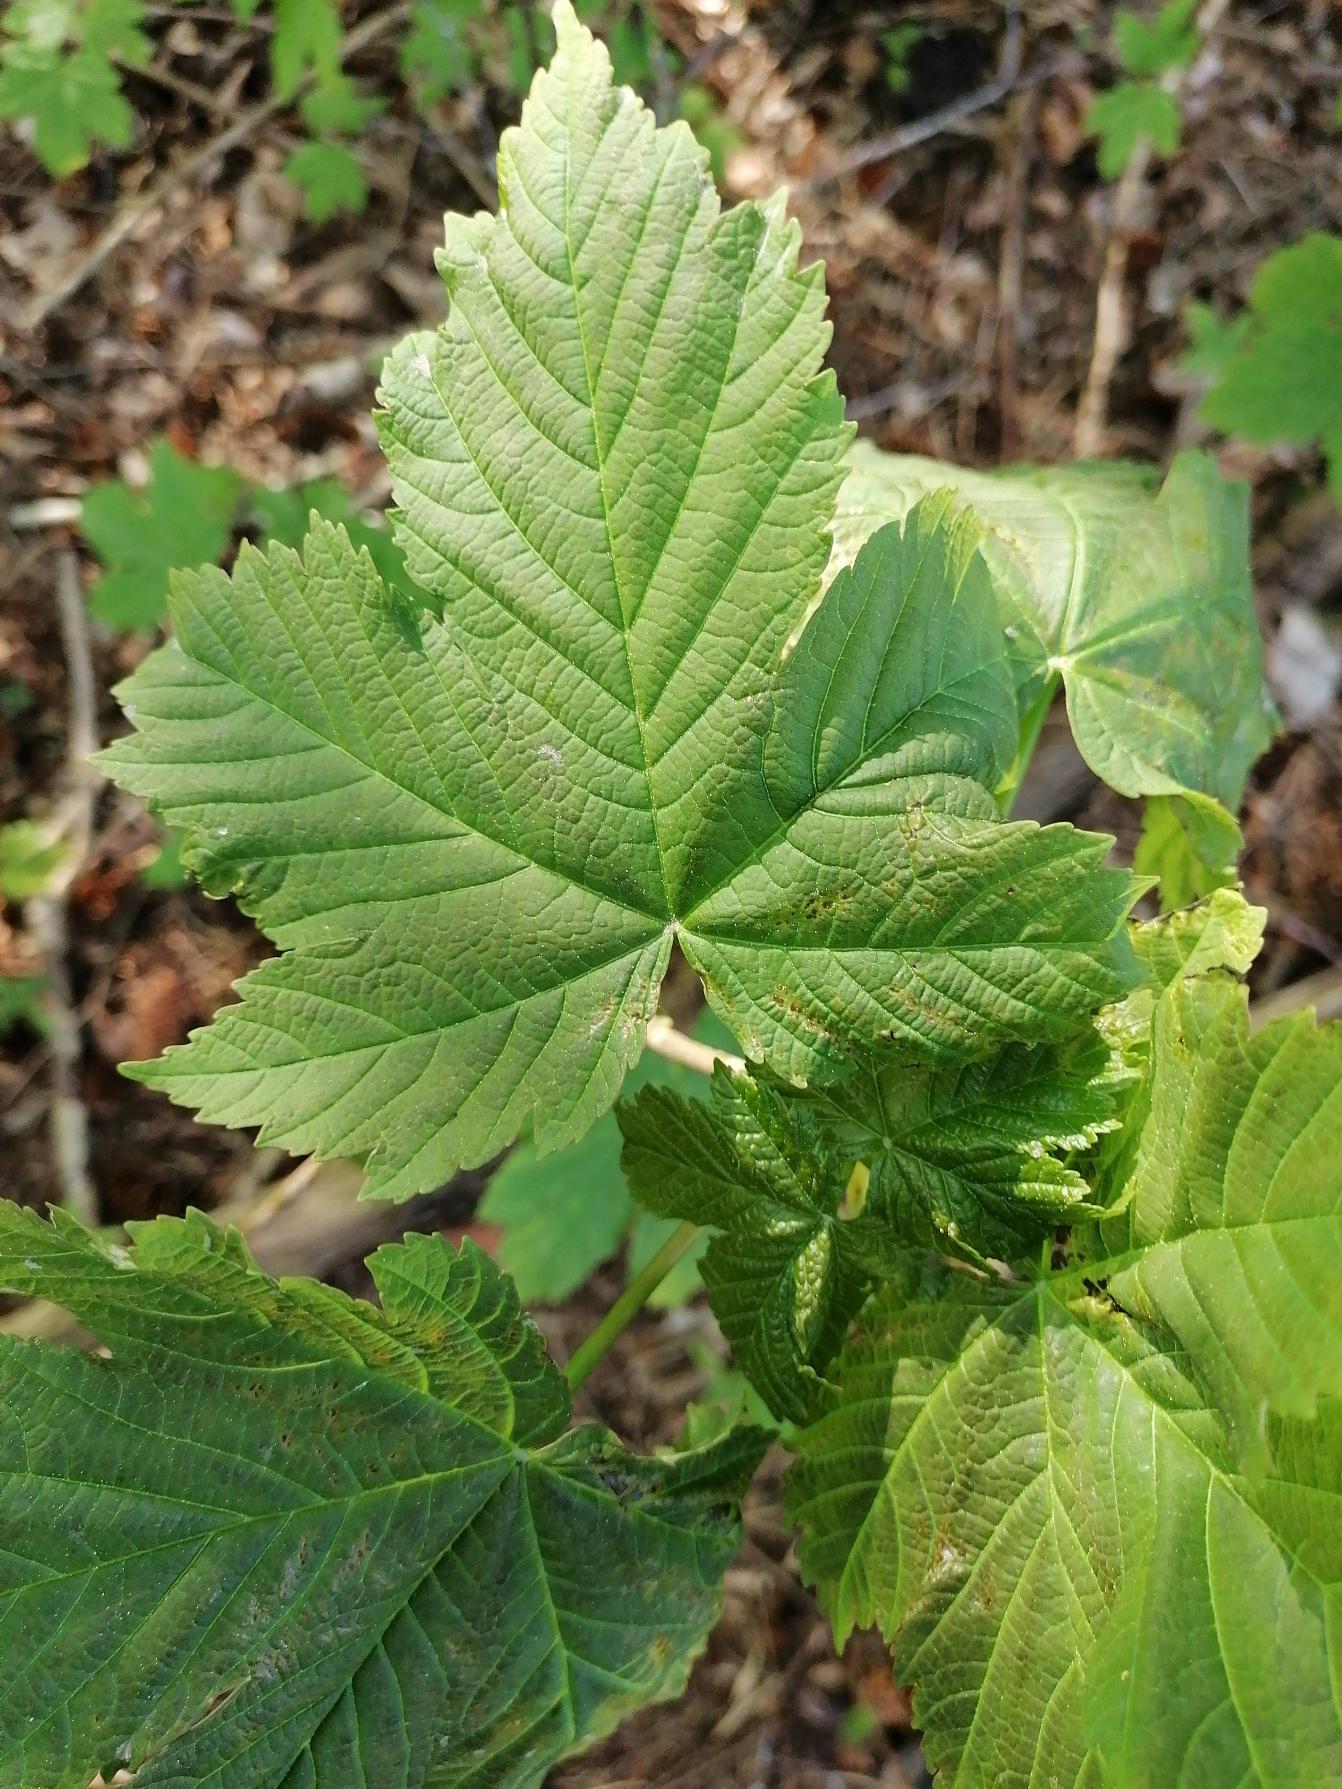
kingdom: Plantae
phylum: Tracheophyta
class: Magnoliopsida
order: Sapindales
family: Sapindaceae
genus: Acer
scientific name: Acer pseudoplatanus
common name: Ahorn
